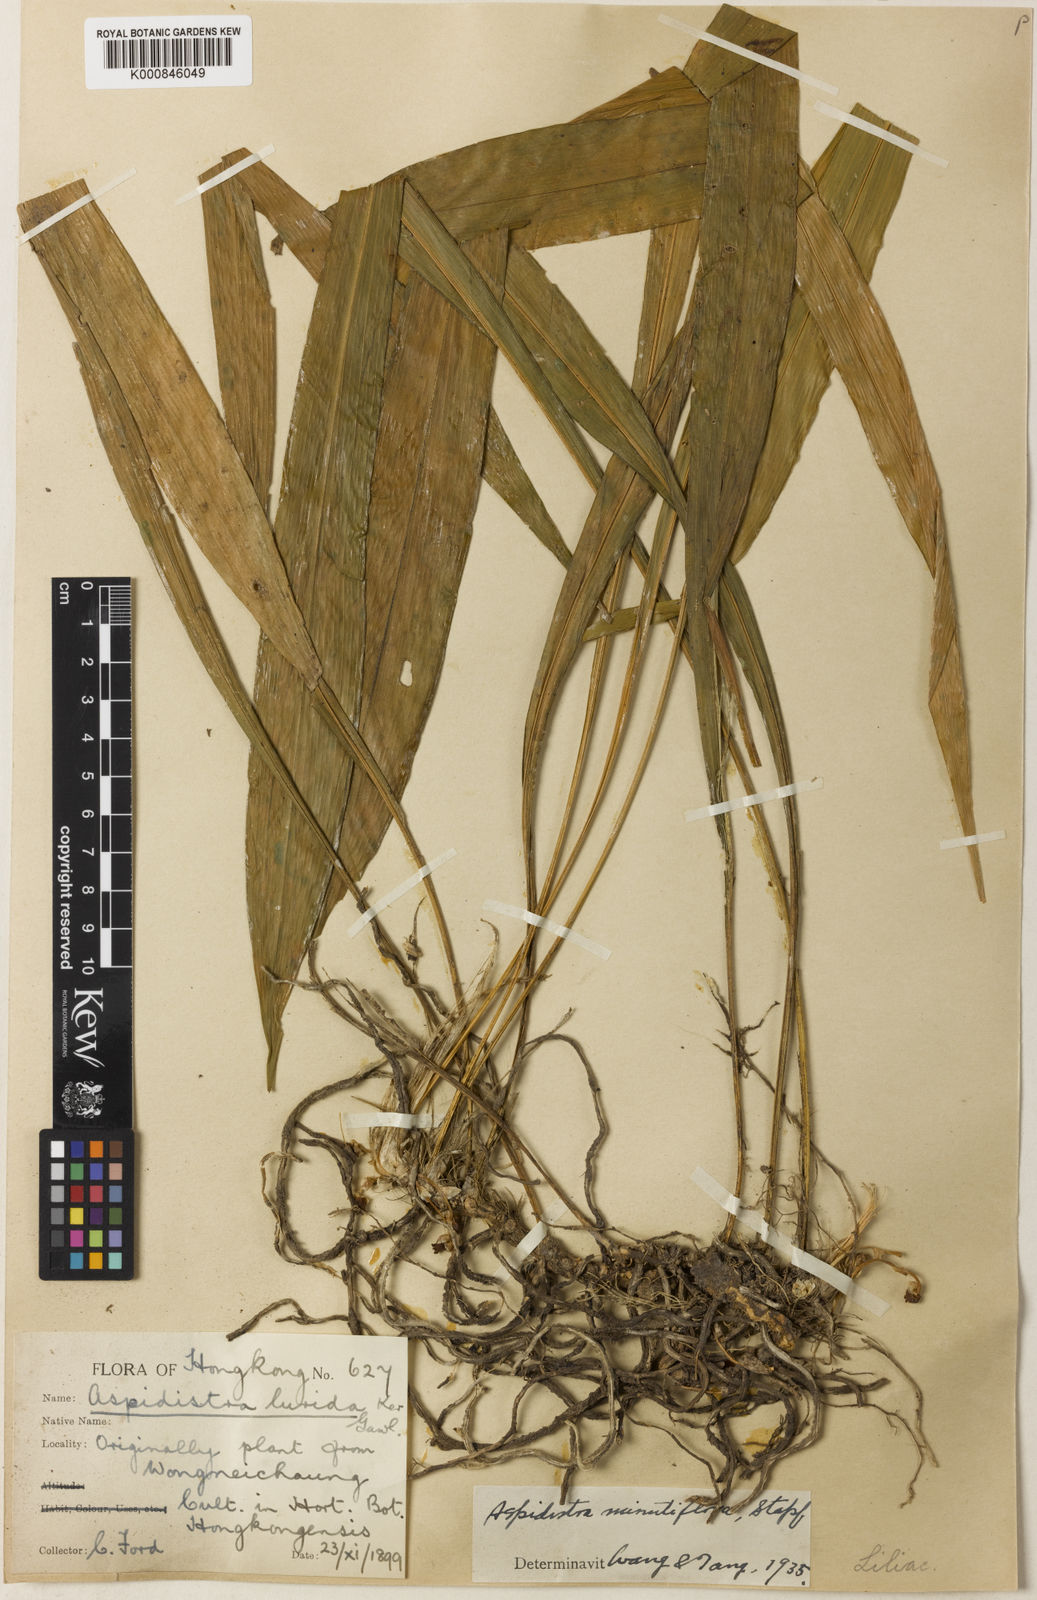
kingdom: Plantae
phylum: Tracheophyta
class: Liliopsida
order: Asparagales
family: Asparagaceae
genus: Aspidistra
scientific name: Aspidistra minutiflora
